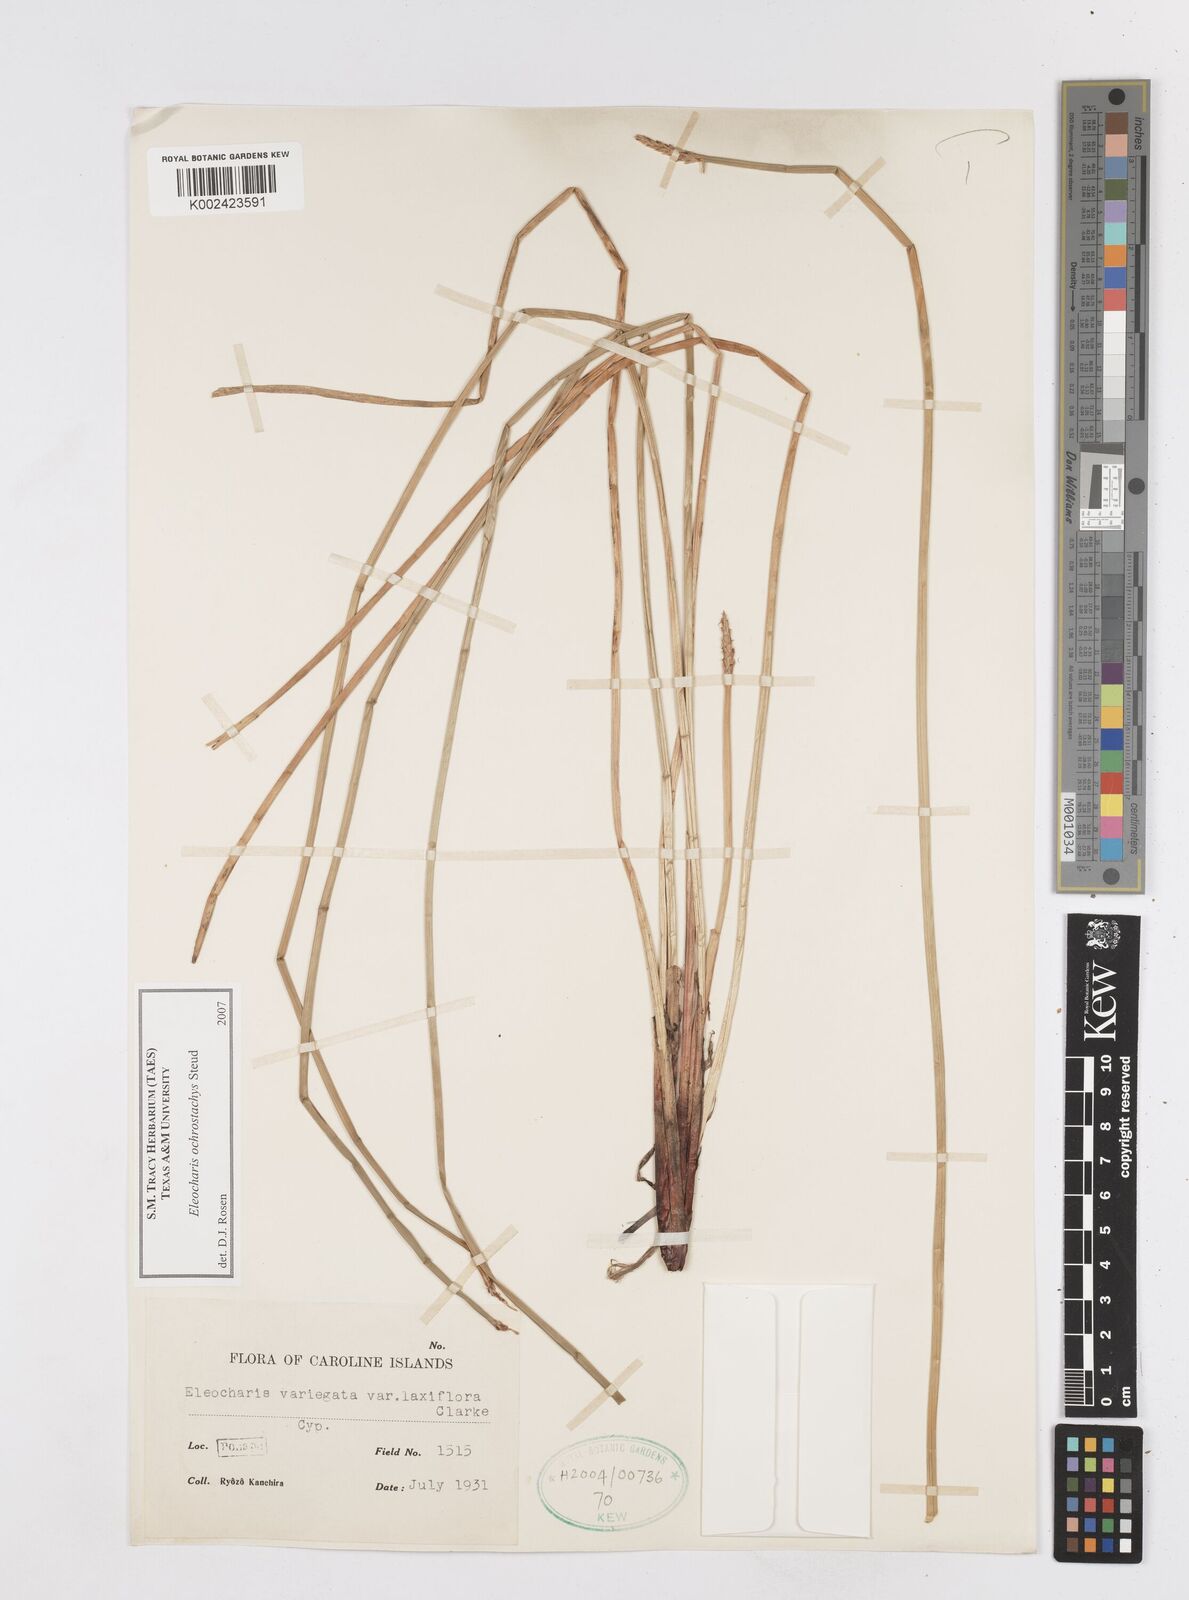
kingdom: Plantae
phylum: Tracheophyta
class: Liliopsida
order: Poales
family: Cyperaceae
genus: Eleocharis
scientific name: Eleocharis ochrostachys
